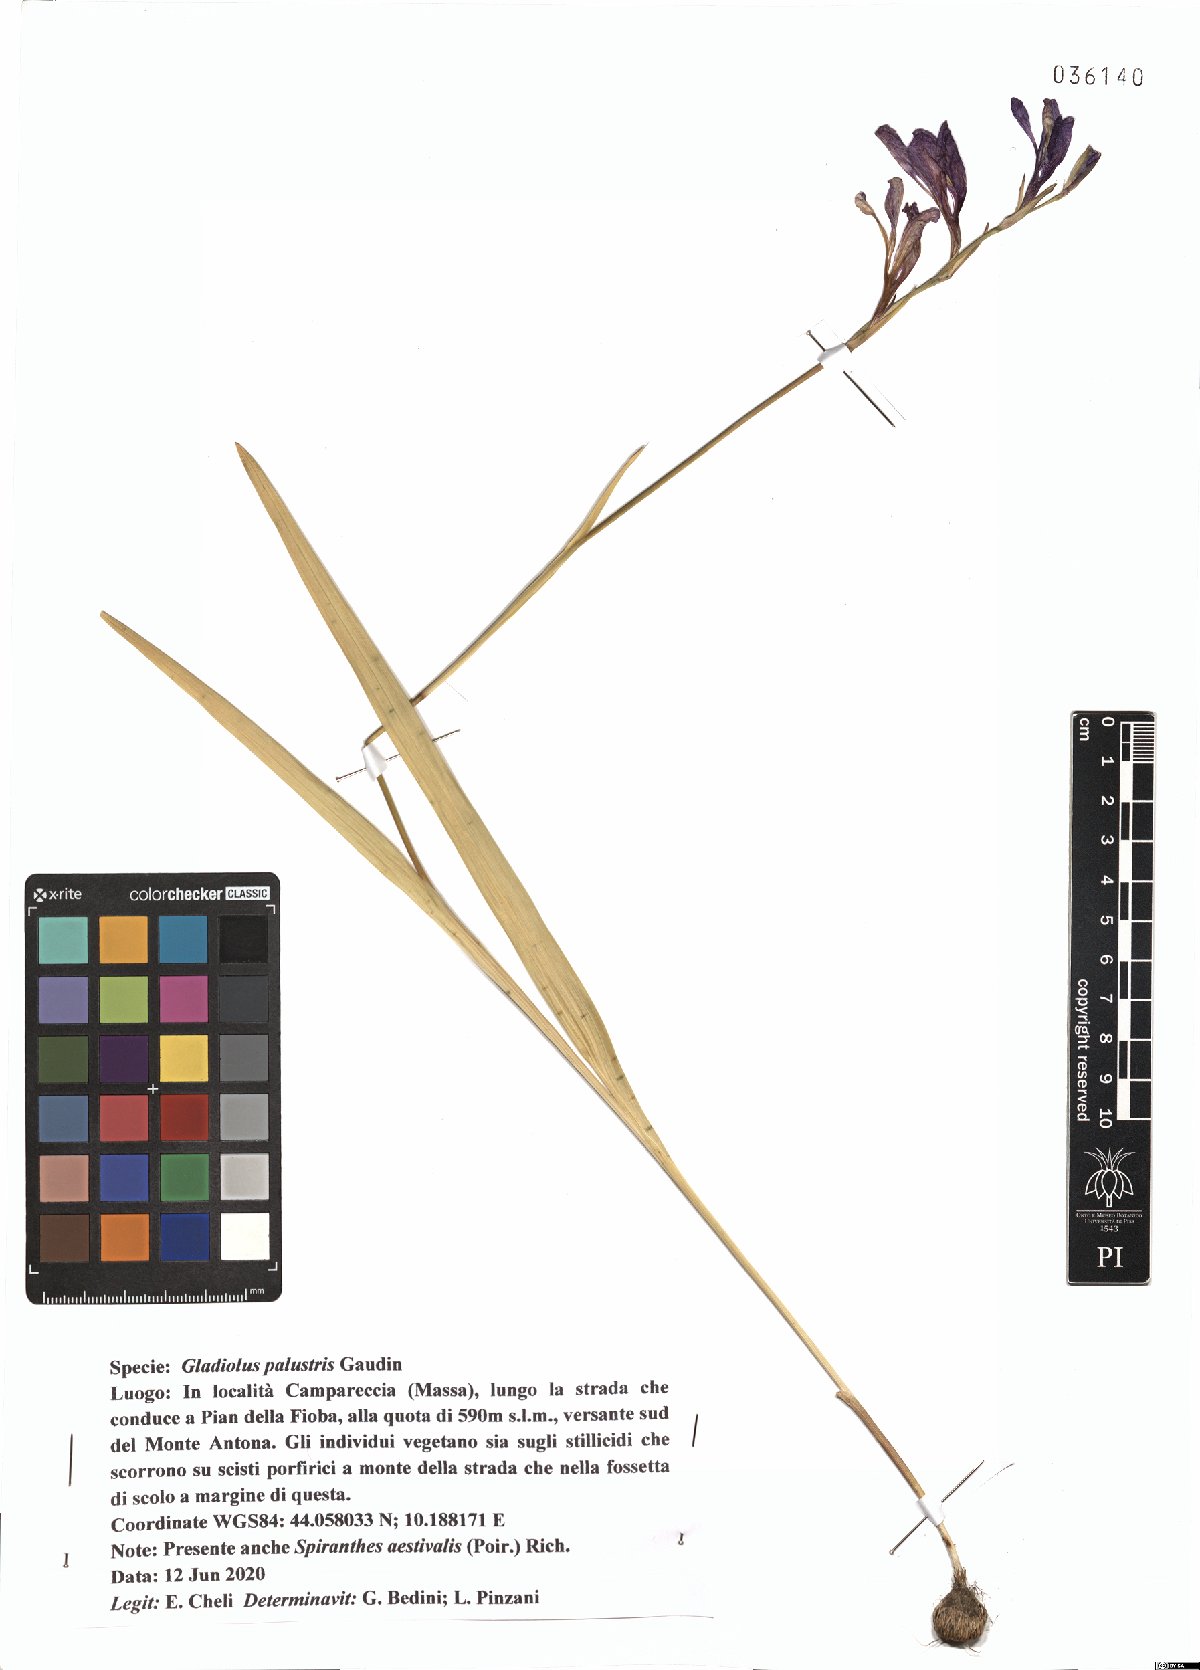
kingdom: Plantae
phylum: Tracheophyta
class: Liliopsida
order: Asparagales
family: Iridaceae
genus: Gladiolus
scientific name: Gladiolus palustris
